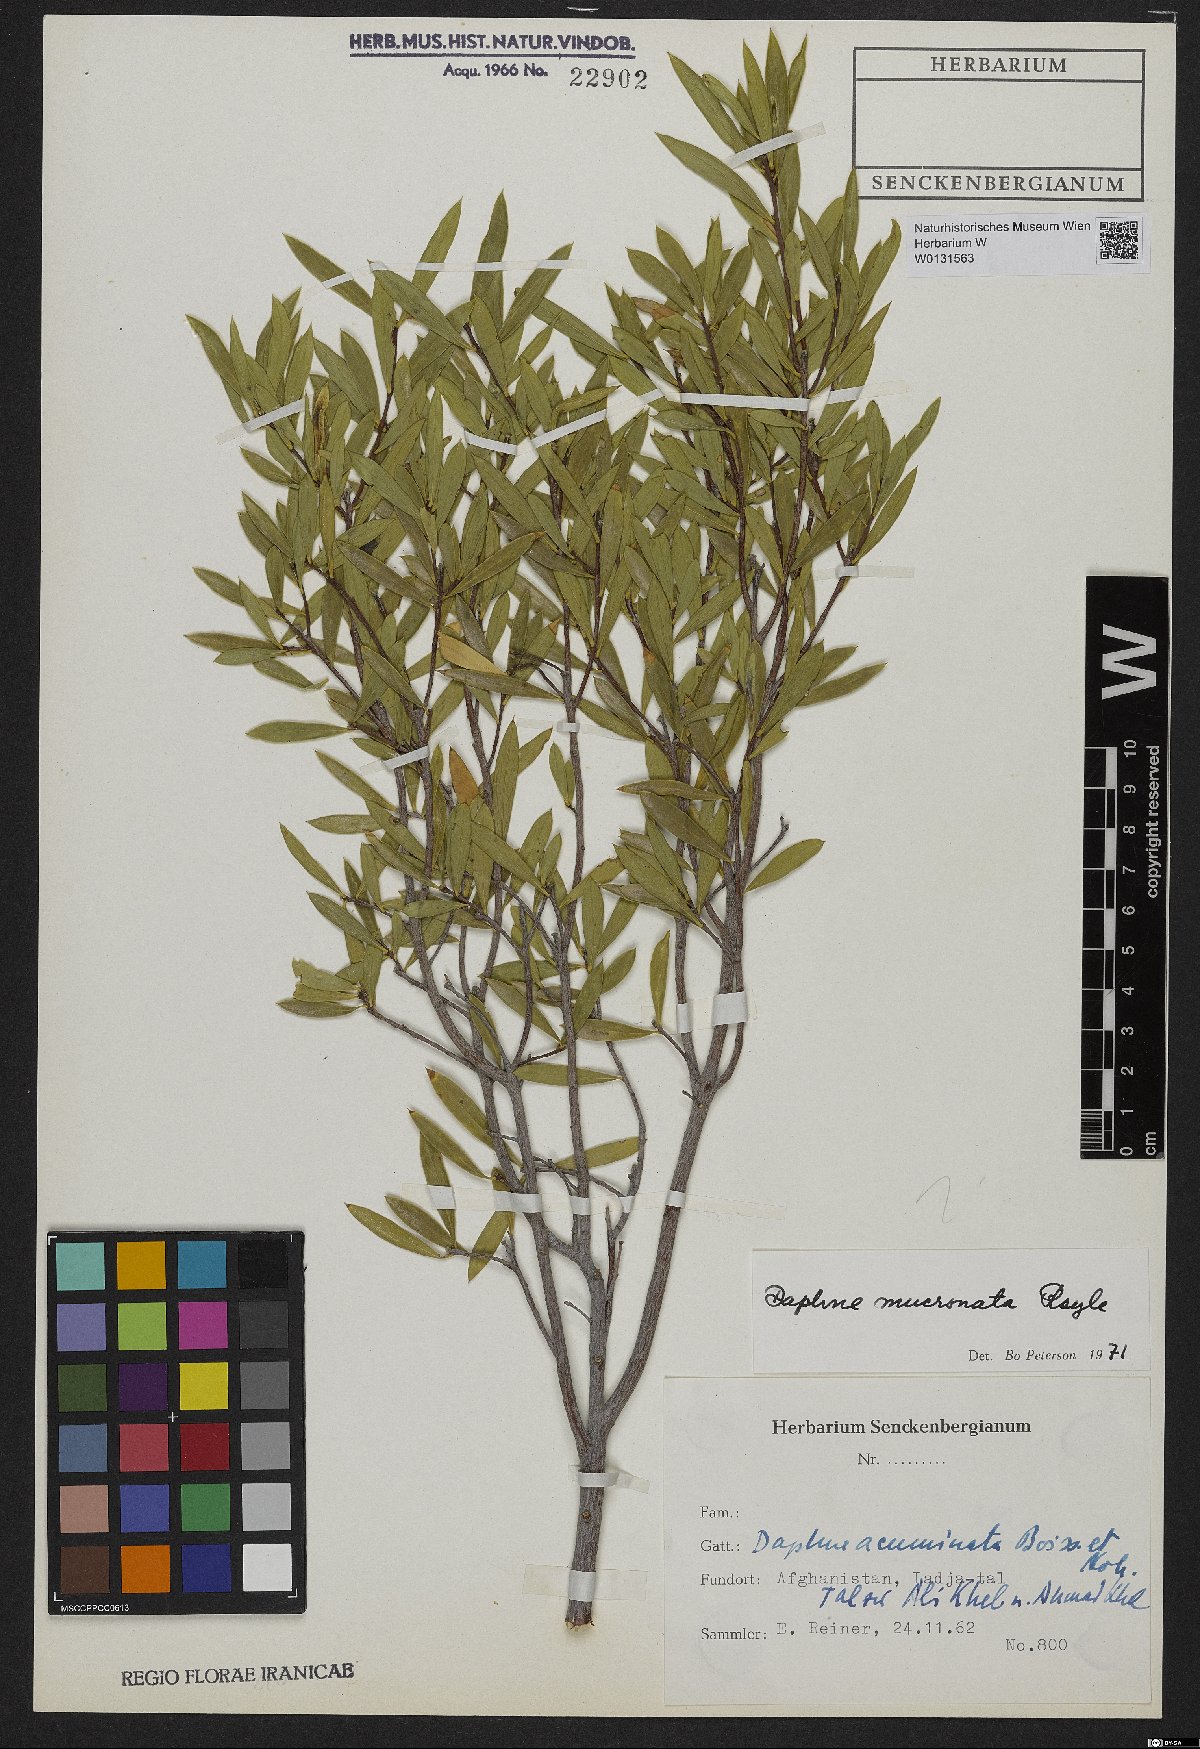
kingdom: Plantae
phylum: Tracheophyta
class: Magnoliopsida
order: Malvales
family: Thymelaeaceae
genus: Daphne
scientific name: Daphne mucronata
